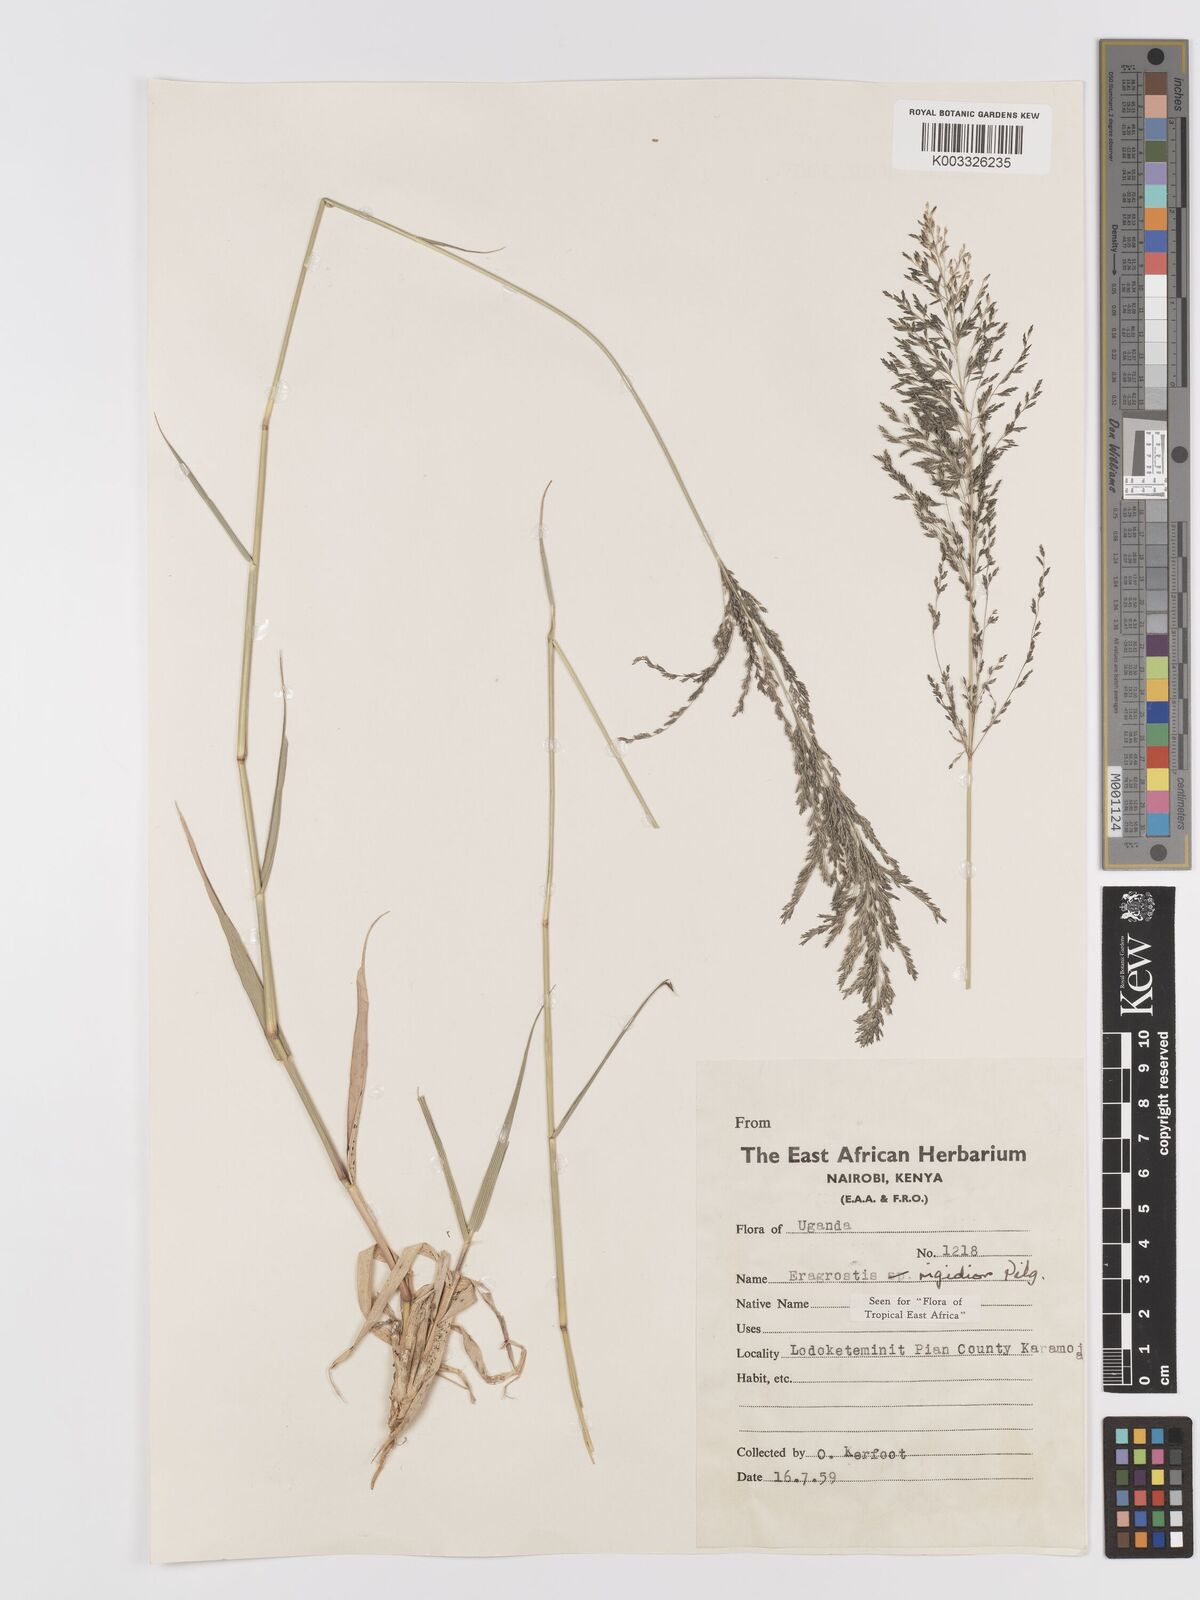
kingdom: Plantae
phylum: Tracheophyta
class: Liliopsida
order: Poales
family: Poaceae
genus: Eragrostis
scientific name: Eragrostis cylindriflora
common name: Cylinderflower lovegrass
